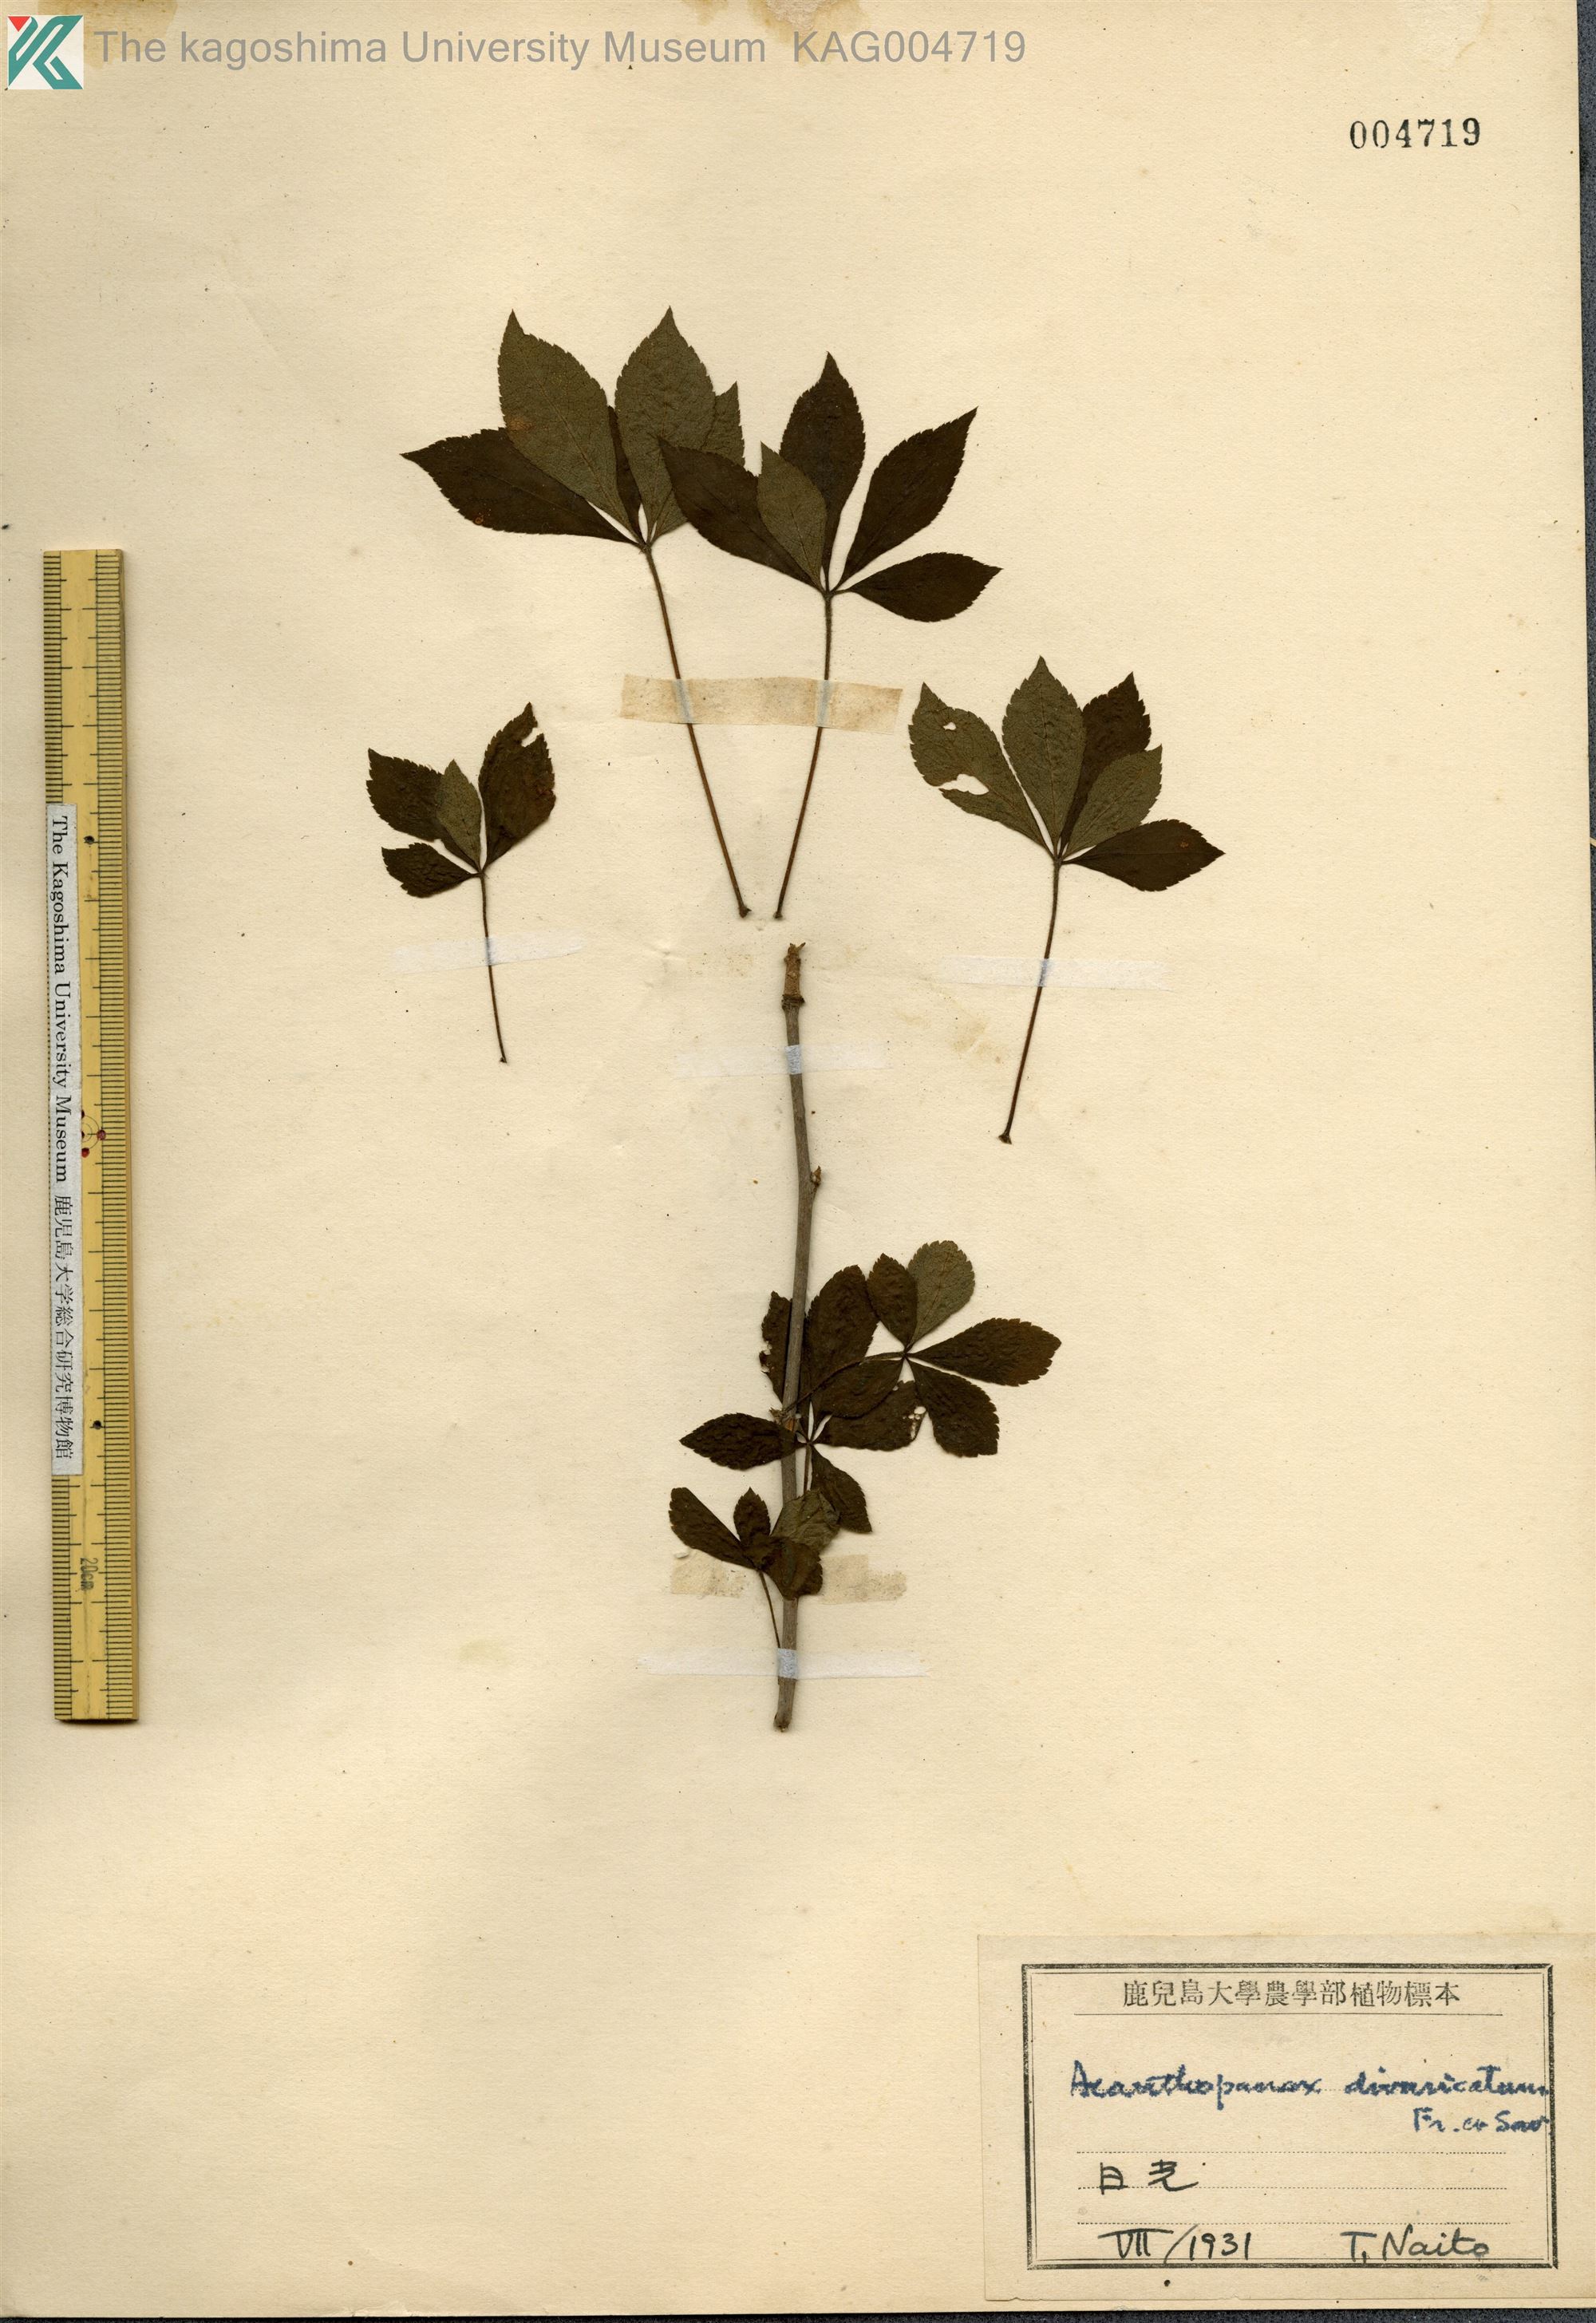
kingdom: Plantae
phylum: Tracheophyta
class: Magnoliopsida
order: Apiales
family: Araliaceae
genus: Eleutherococcus
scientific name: Eleutherococcus divaricatus
